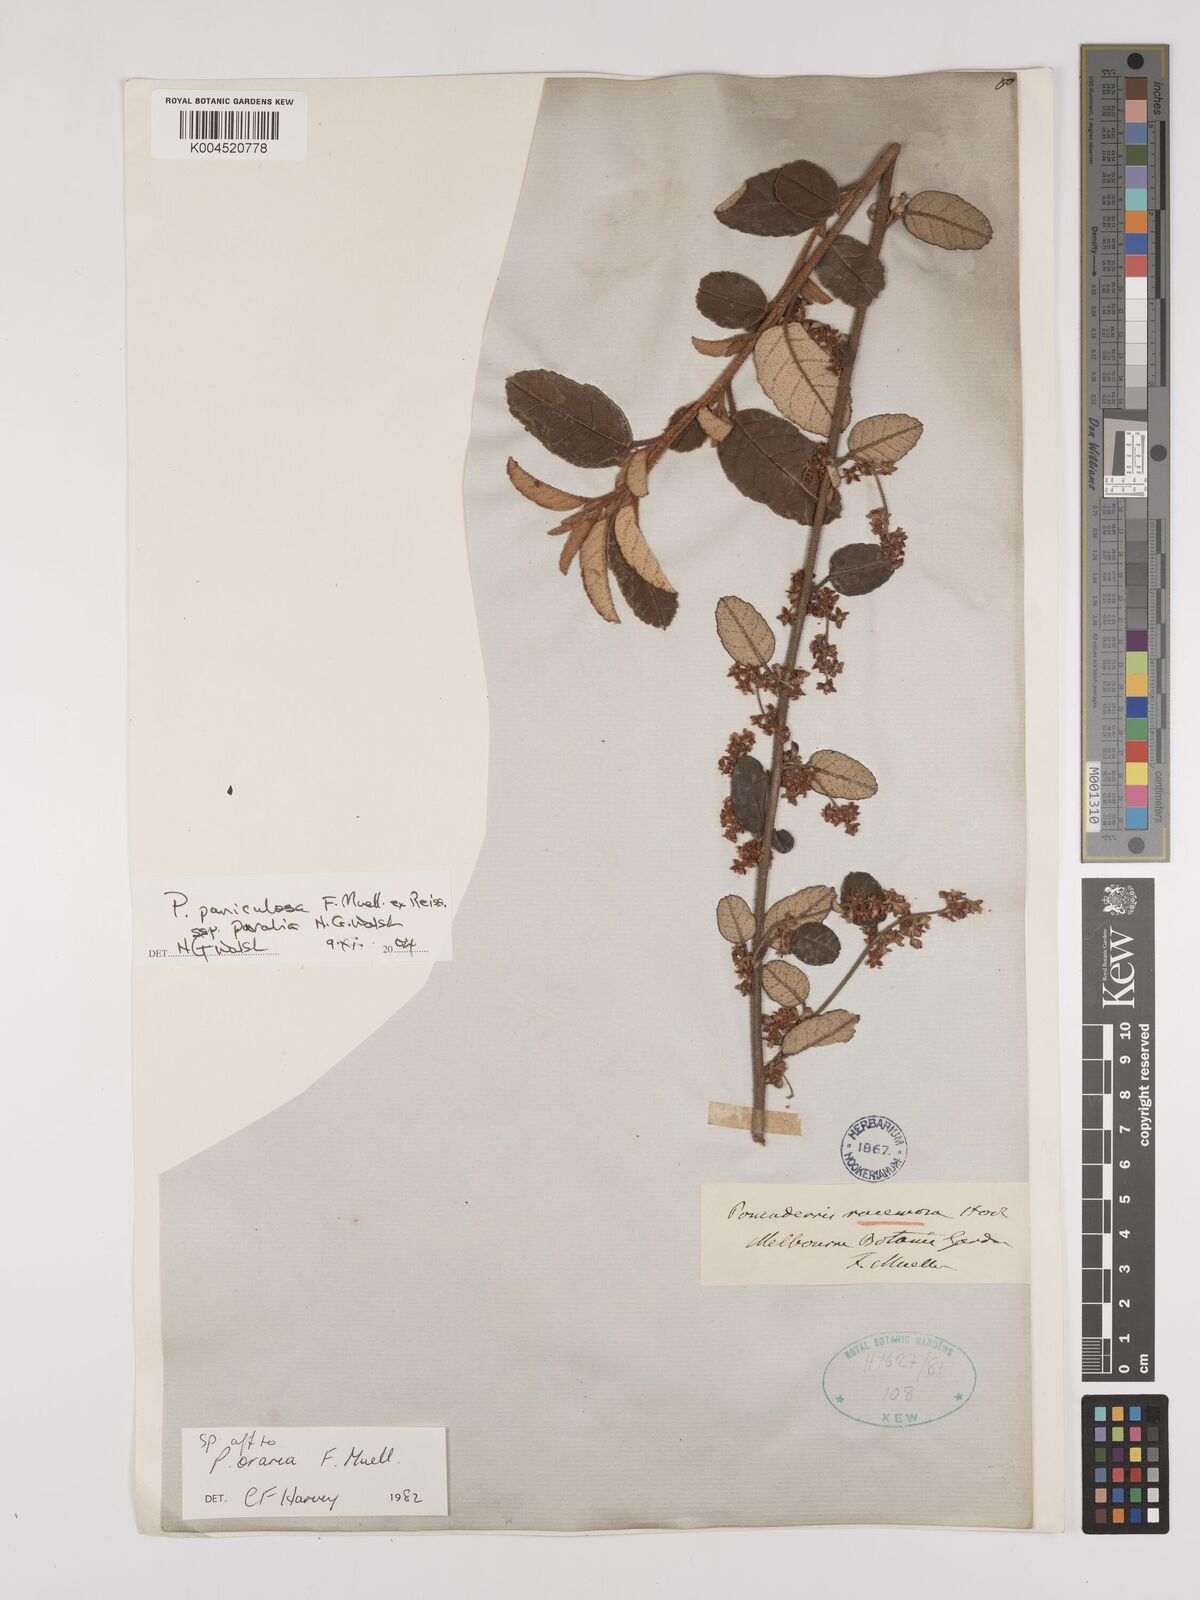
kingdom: Plantae
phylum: Tracheophyta
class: Magnoliopsida
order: Rosales
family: Rhamnaceae
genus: Pomaderris
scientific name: Pomaderris paniculosa
